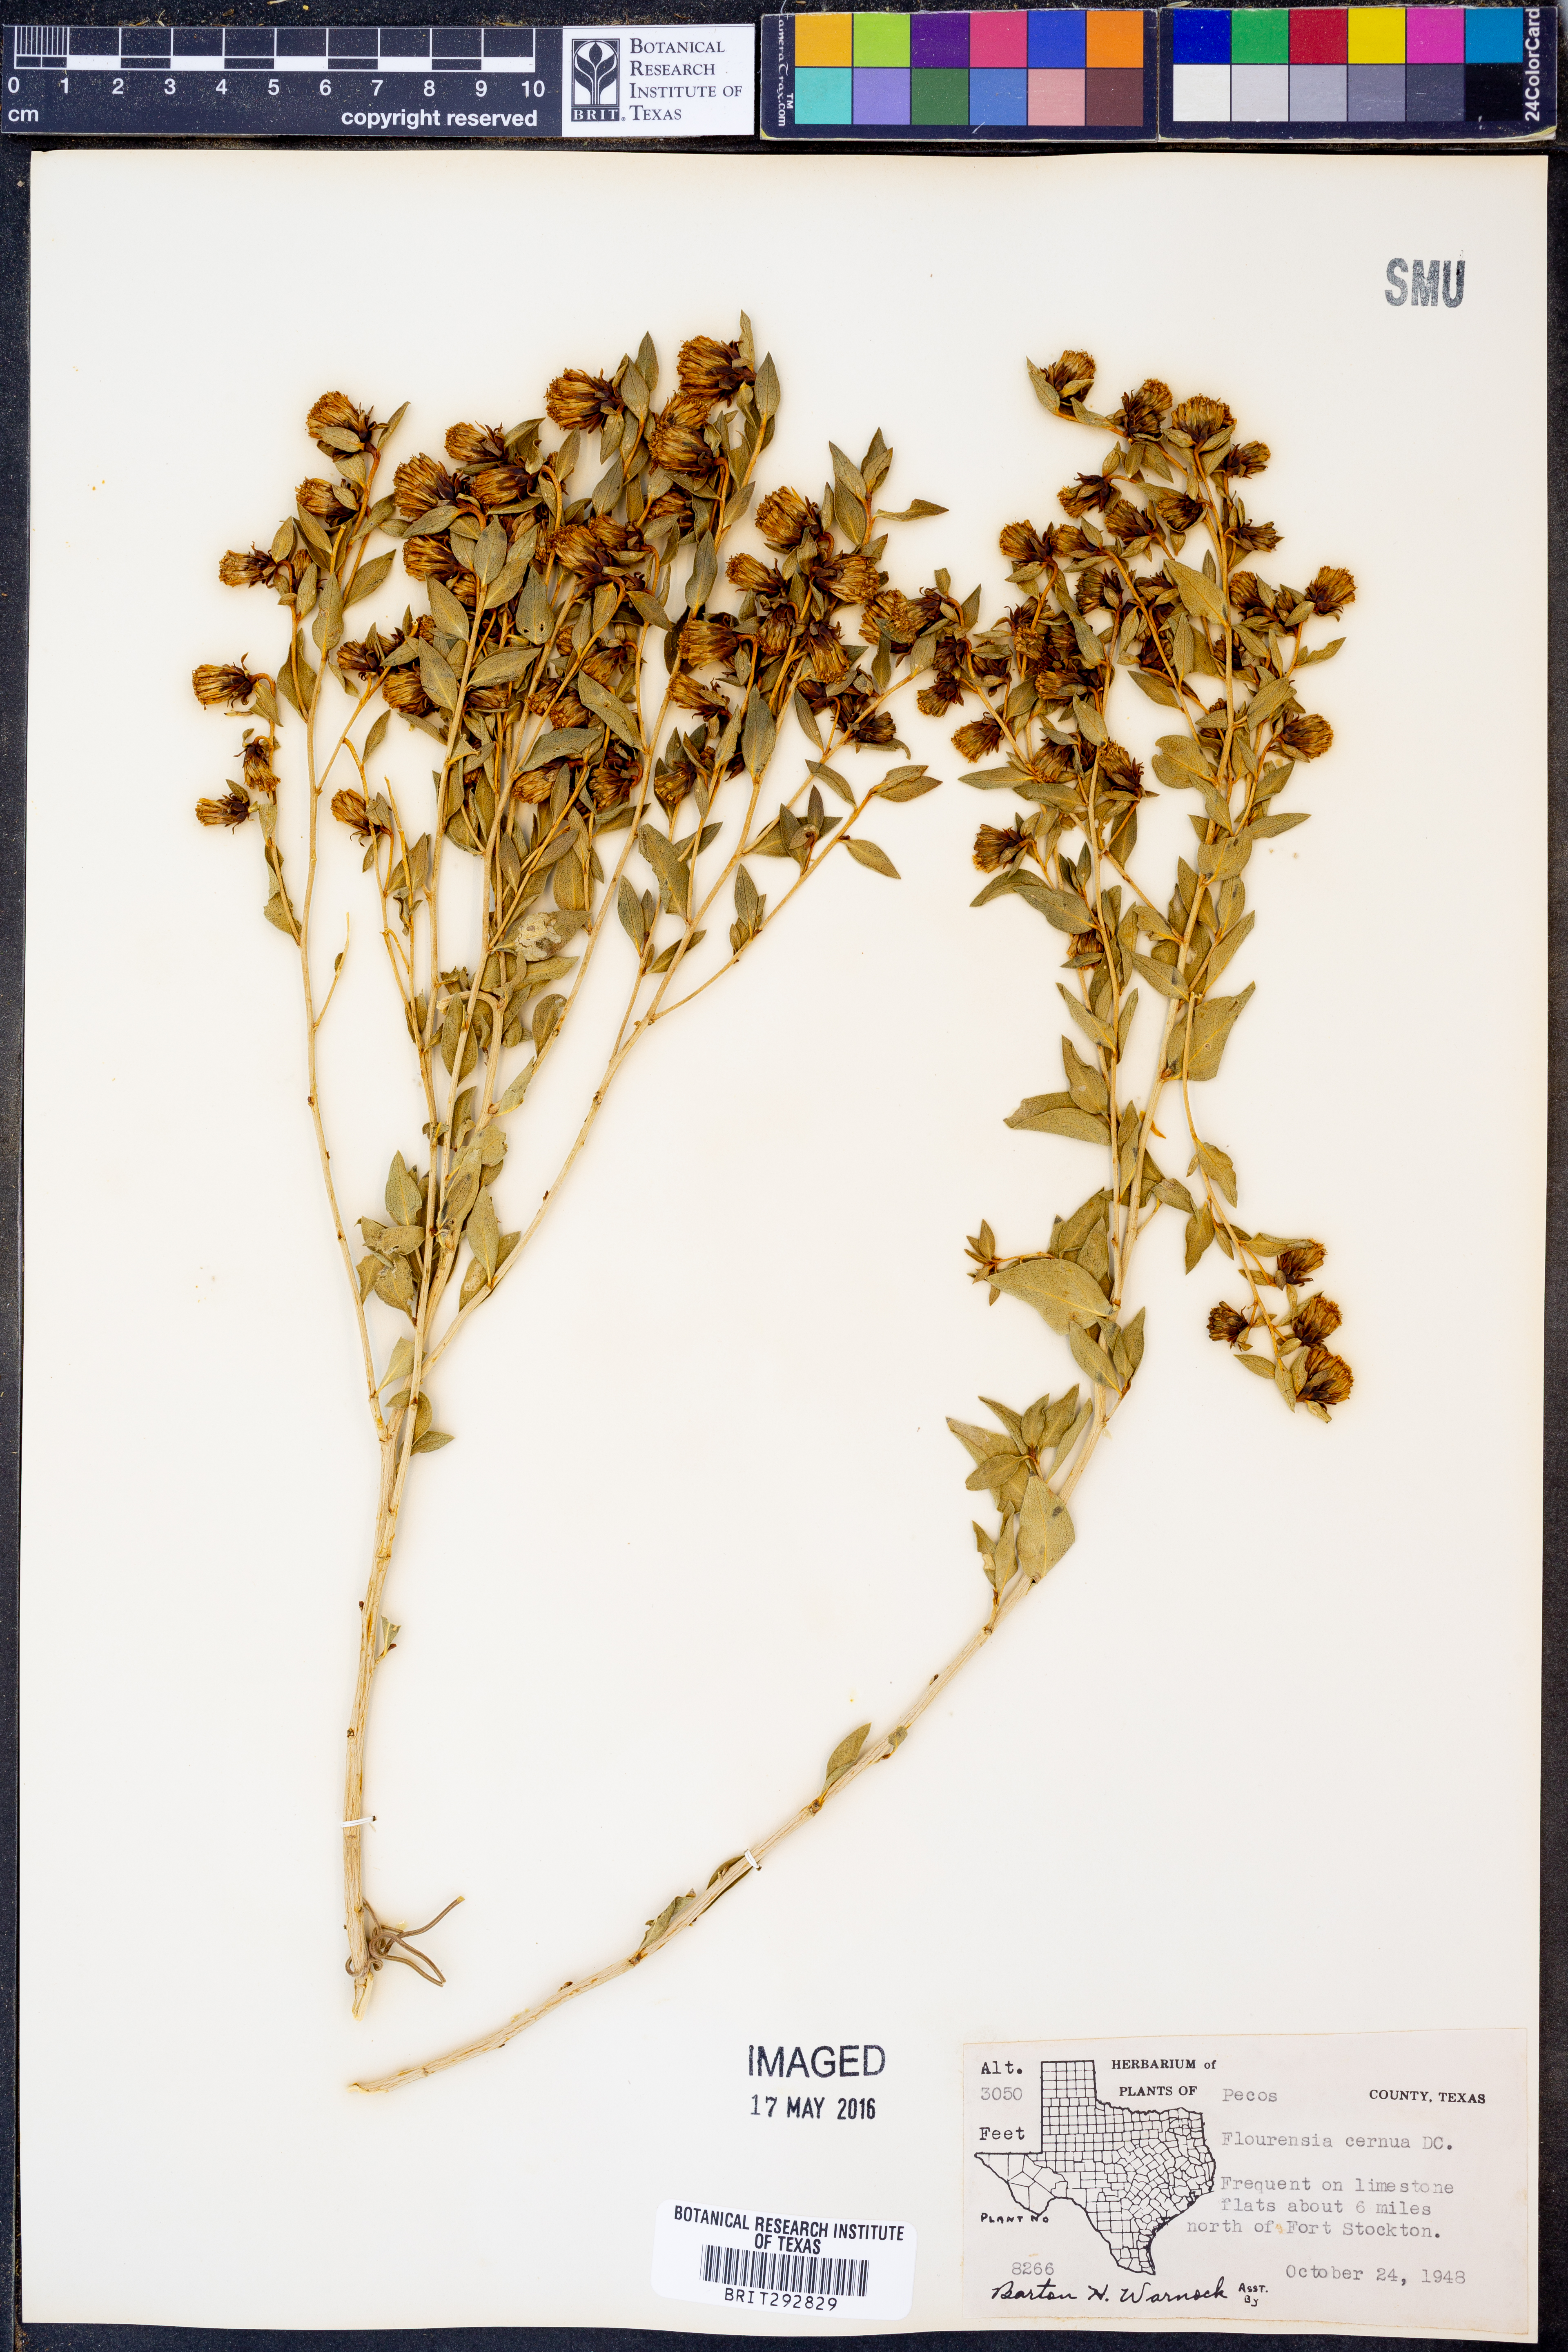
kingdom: Plantae
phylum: Tracheophyta
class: Magnoliopsida
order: Asterales
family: Asteraceae
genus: Flourensia
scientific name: Flourensia cernua
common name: Varnishbush
